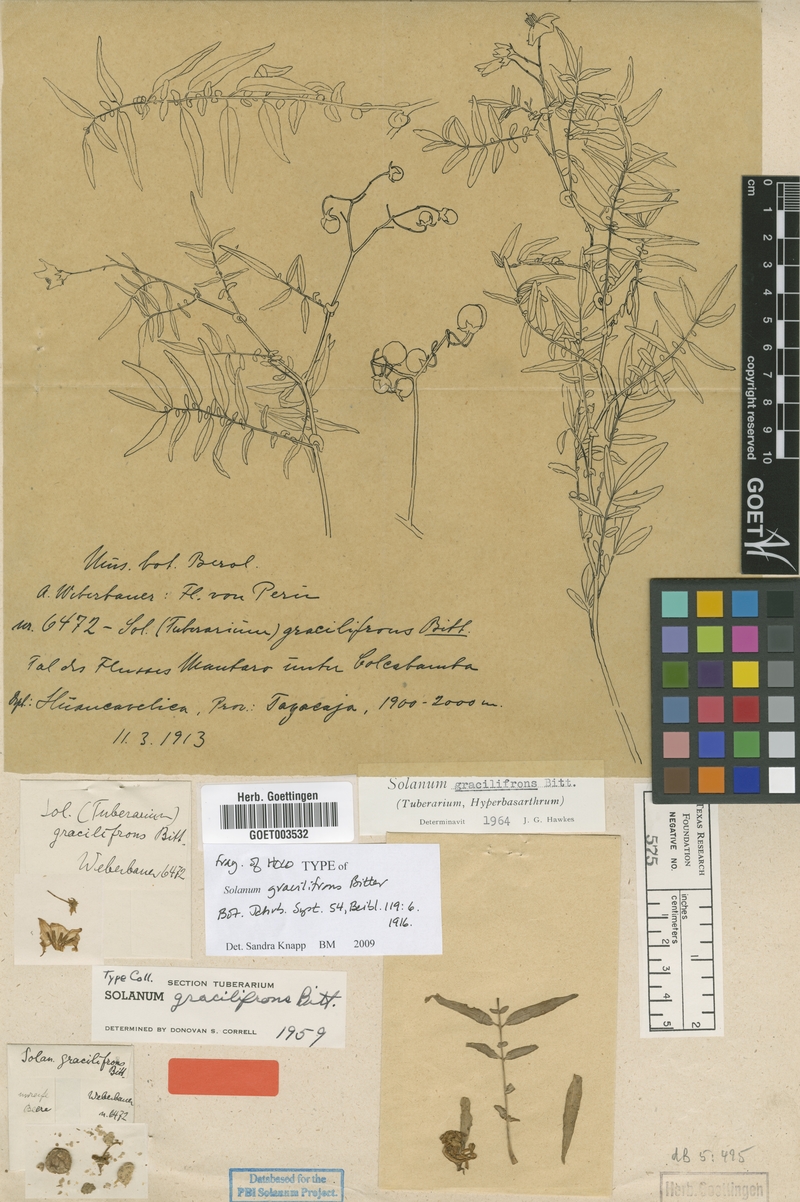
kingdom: Plantae
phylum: Tracheophyta
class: Magnoliopsida
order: Solanales
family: Solanaceae
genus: Solanum
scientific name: Solanum gracilifrons
